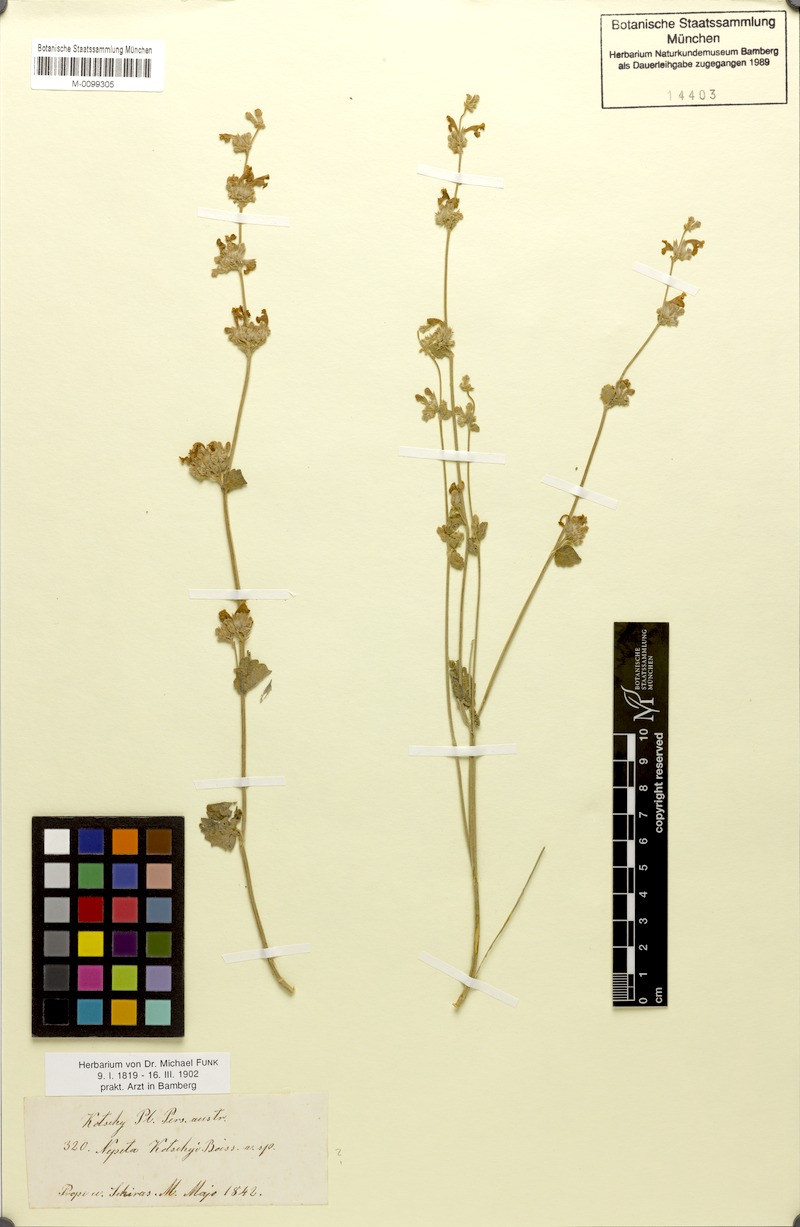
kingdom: Plantae
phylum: Tracheophyta
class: Magnoliopsida
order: Lamiales
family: Lamiaceae
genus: Nepeta
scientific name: Nepeta kotschyi
